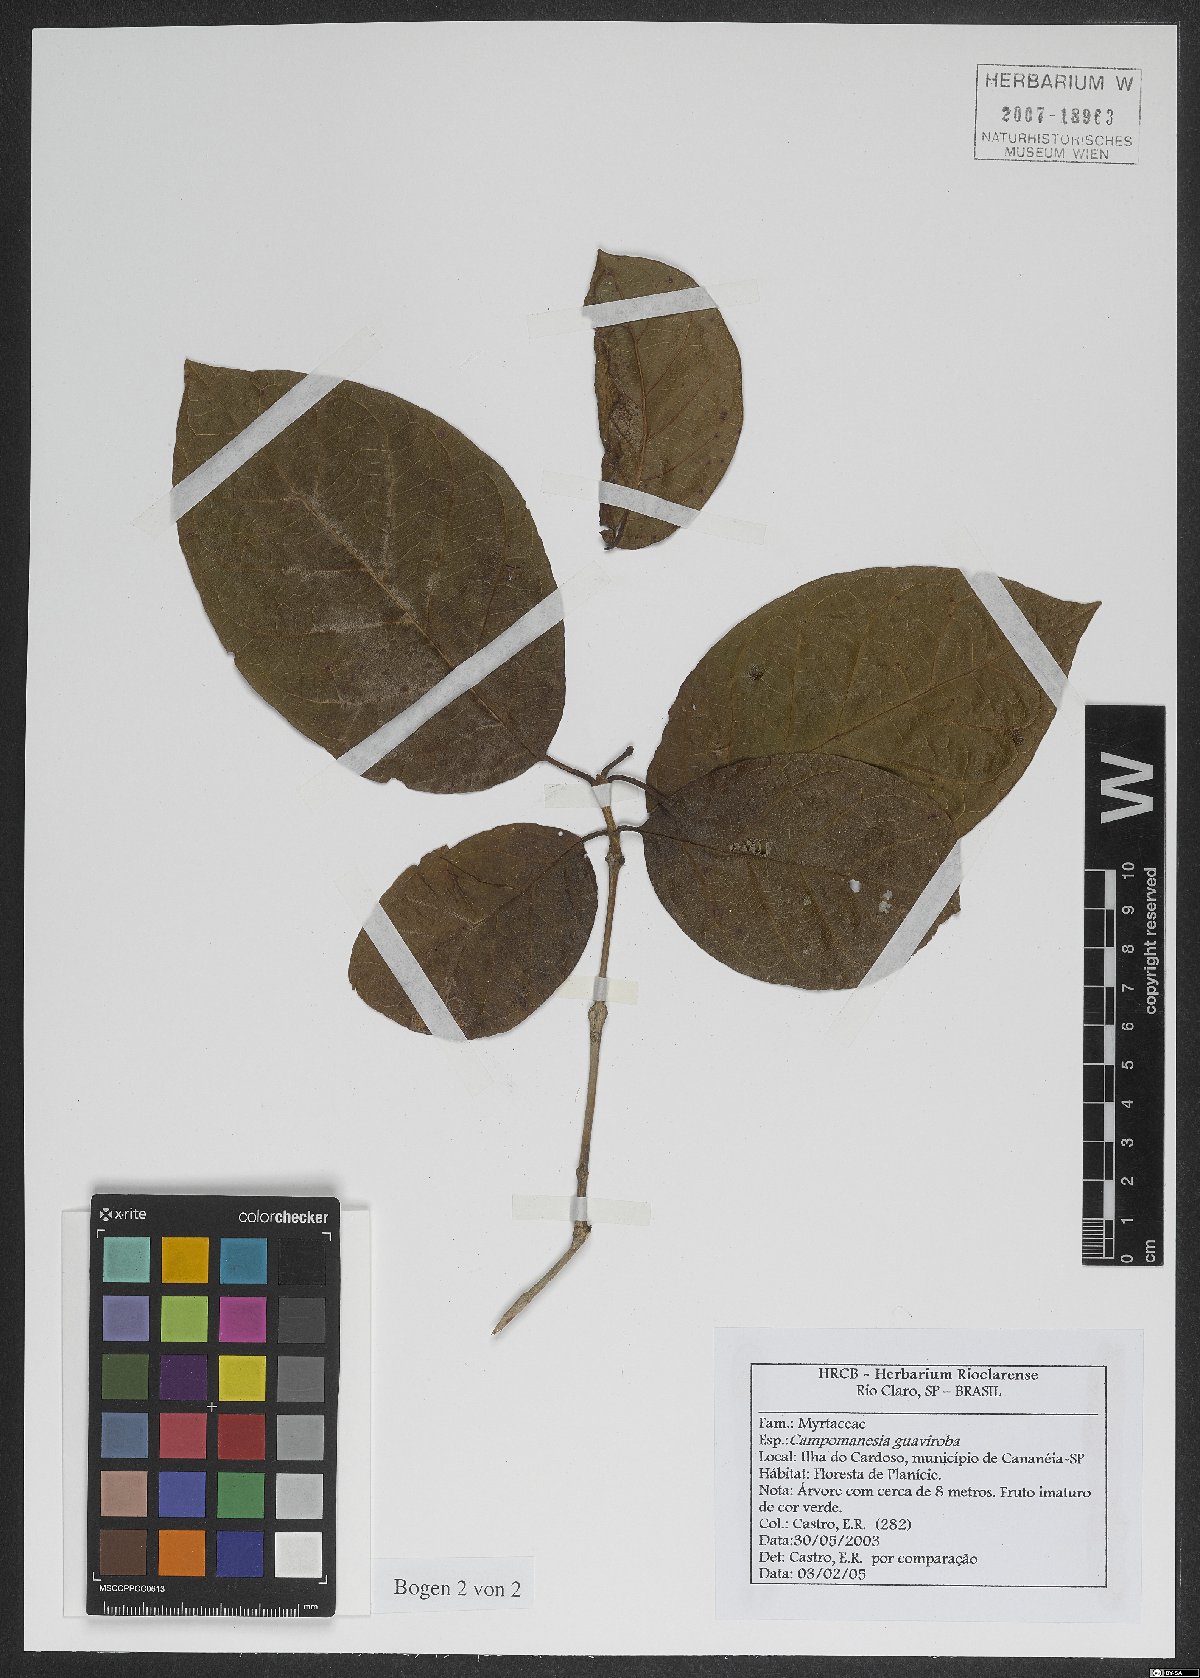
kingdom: Plantae
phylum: Tracheophyta
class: Magnoliopsida
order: Myrtales
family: Myrtaceae
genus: Campomanesia
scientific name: Campomanesia guaviroba
